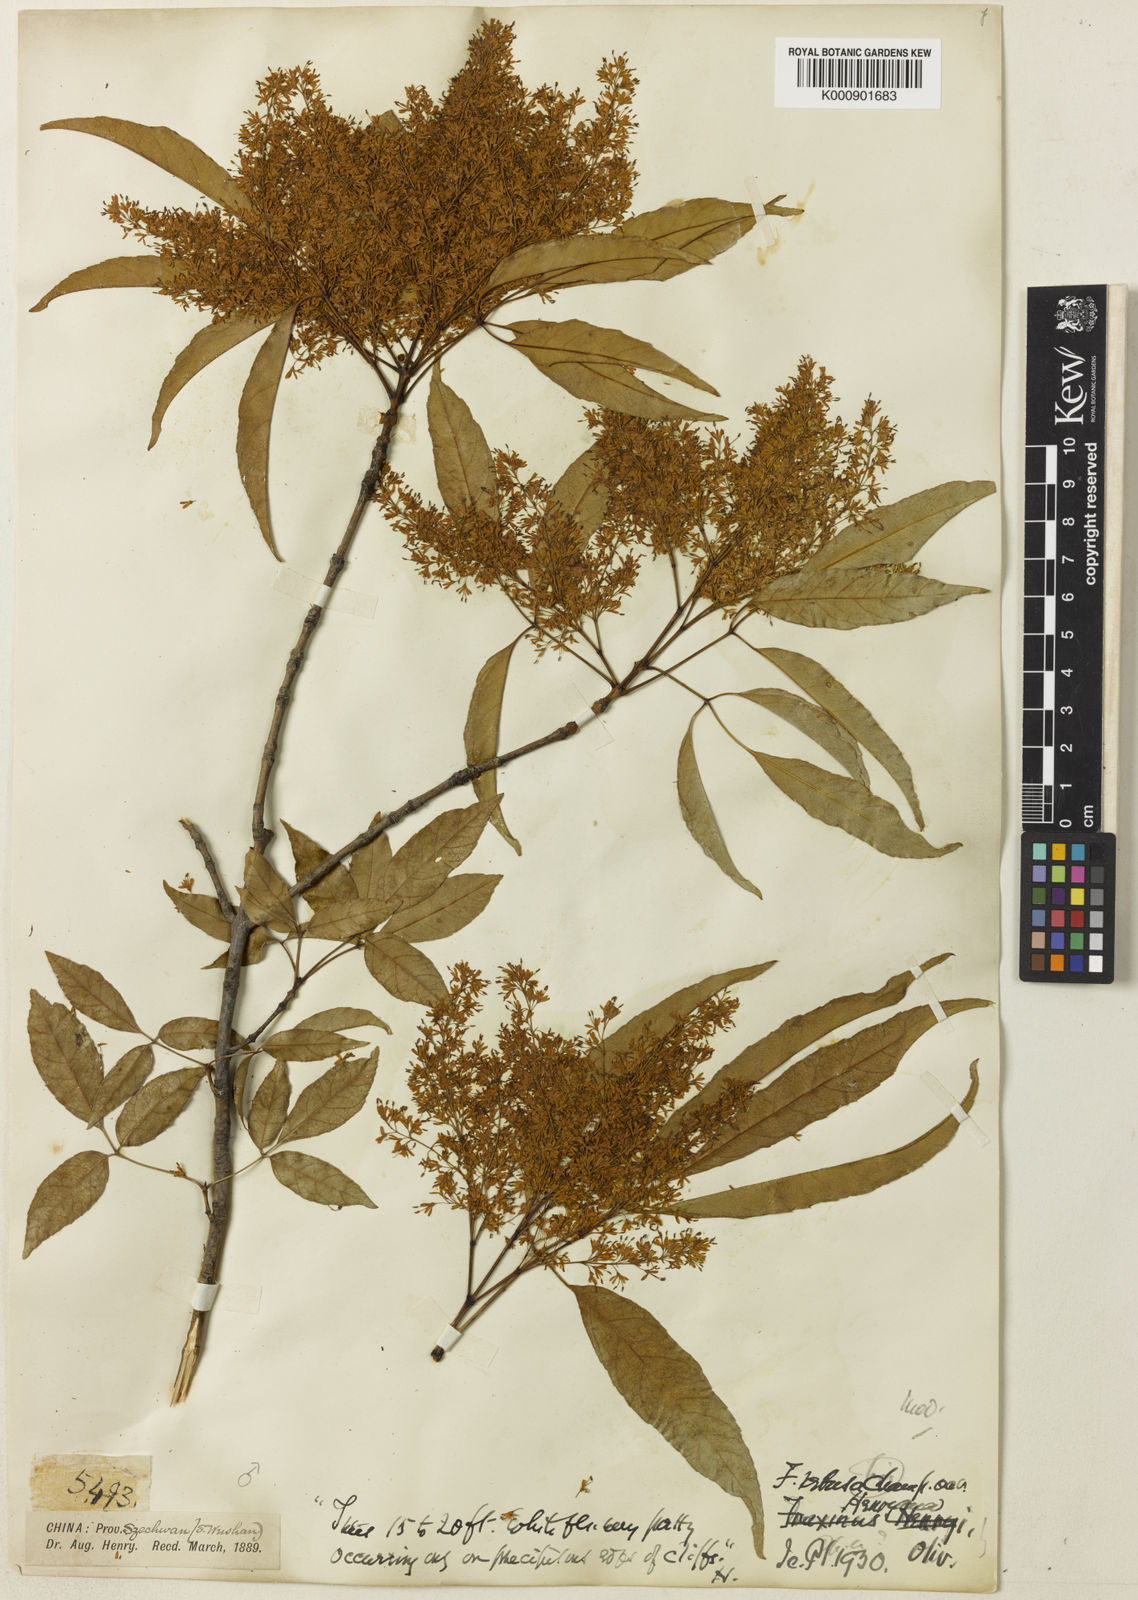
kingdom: Plantae
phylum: Tracheophyta
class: Magnoliopsida
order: Lamiales
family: Oleaceae
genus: Fraxinus
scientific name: Fraxinus floribunda
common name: East indian ash
